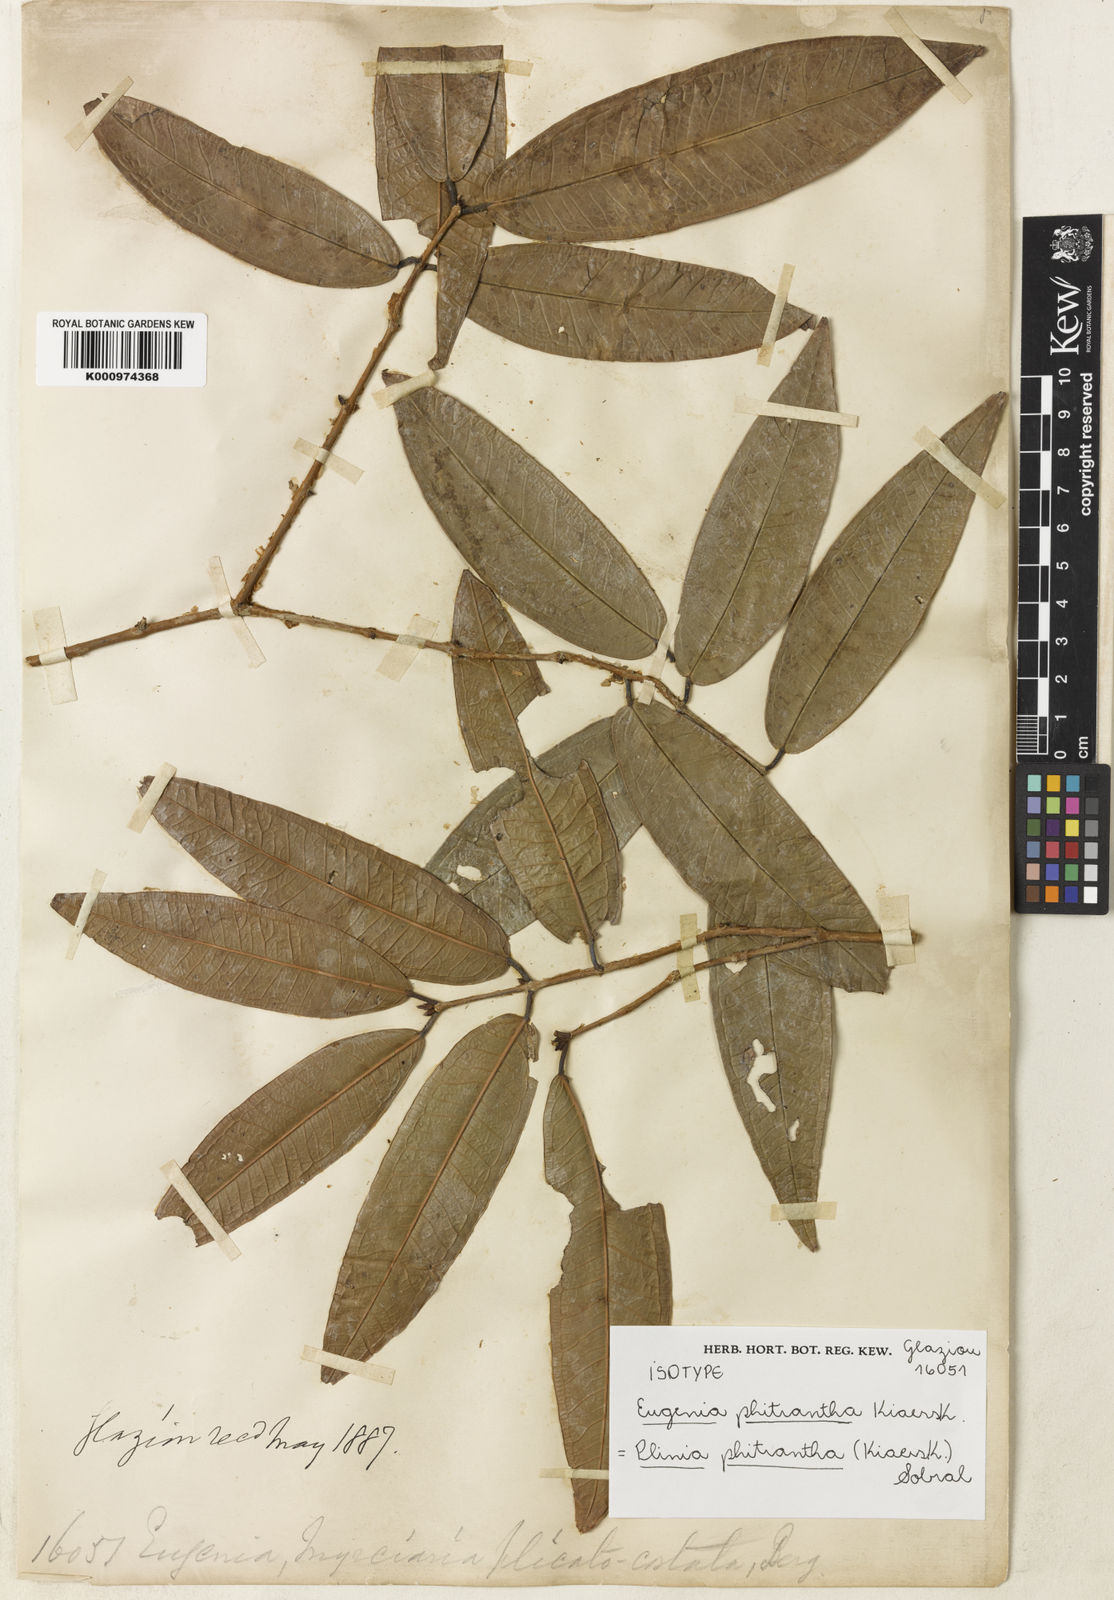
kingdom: Plantae
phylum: Tracheophyta
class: Magnoliopsida
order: Myrtales
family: Myrtaceae
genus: Plinia
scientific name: Plinia phitrantha
